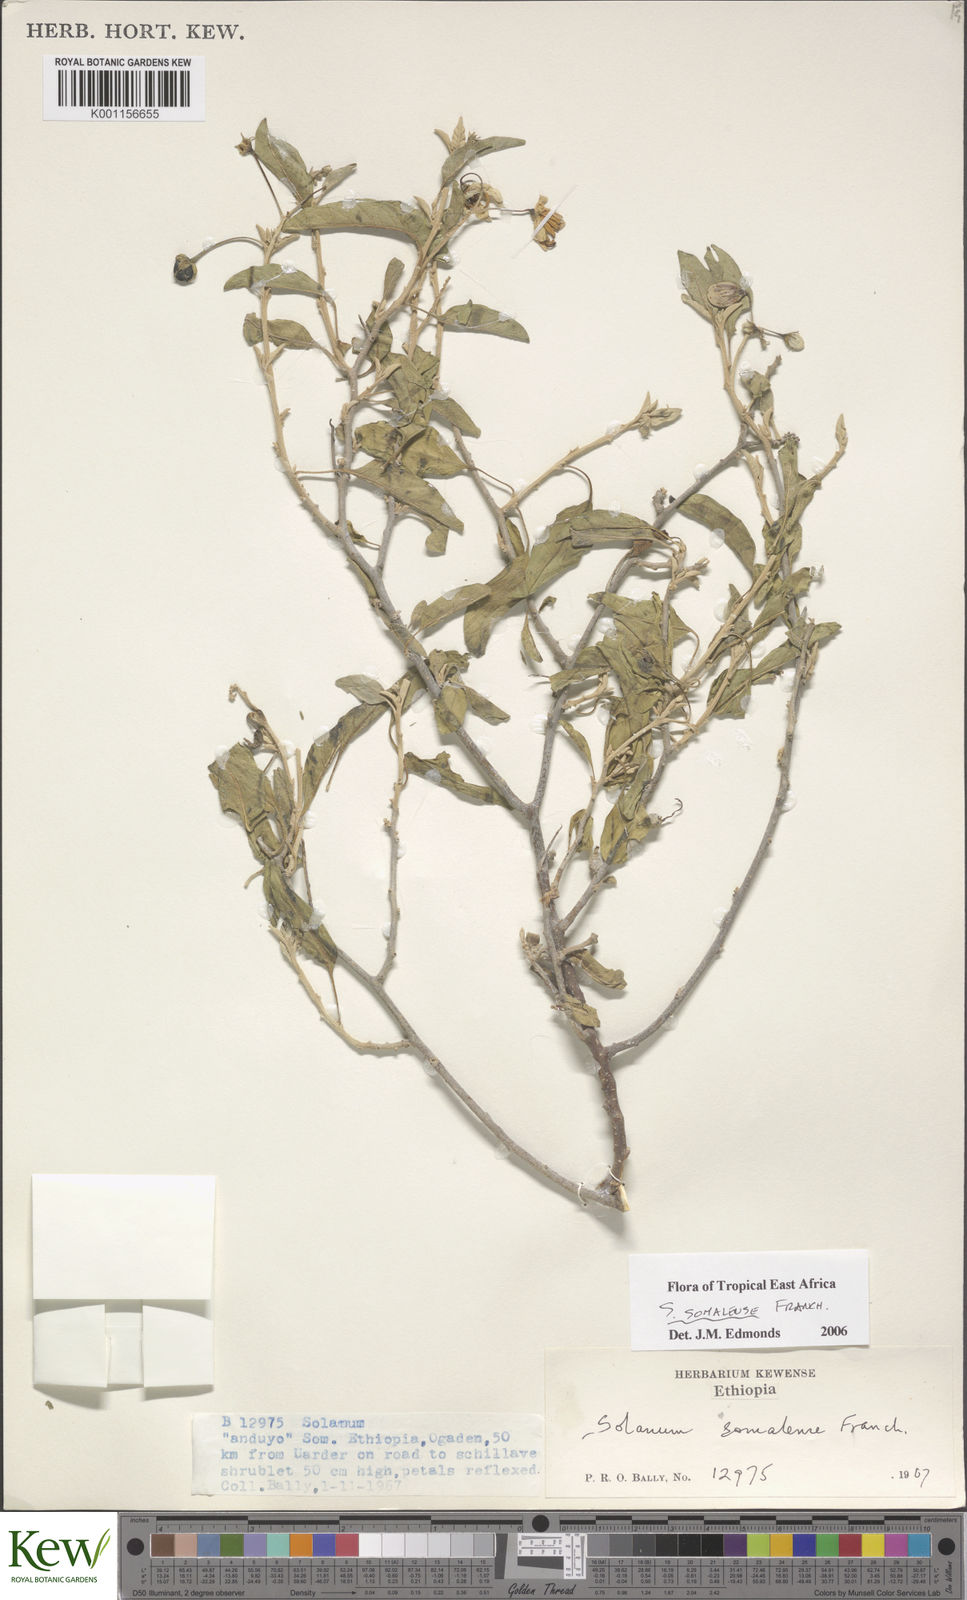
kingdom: Plantae
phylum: Tracheophyta
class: Magnoliopsida
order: Solanales
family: Solanaceae
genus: Solanum
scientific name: Solanum somalense
